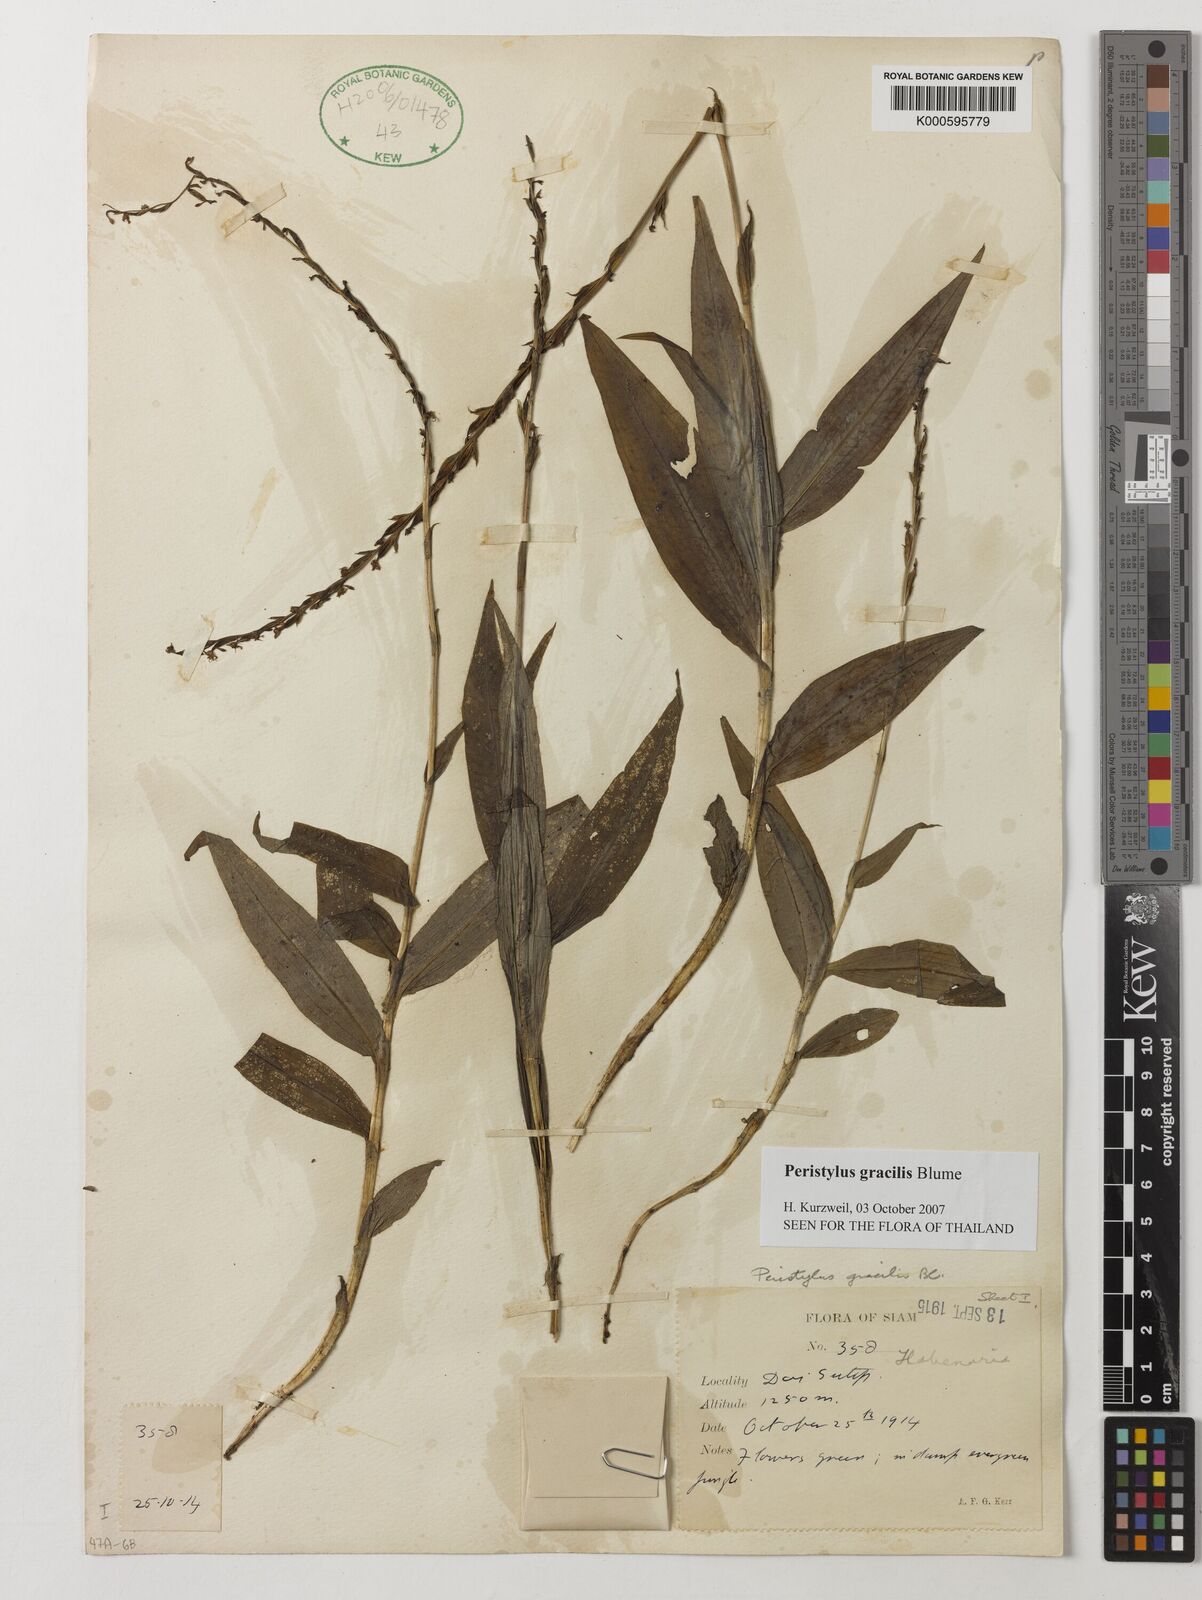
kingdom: Plantae
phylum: Tracheophyta
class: Liliopsida
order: Asparagales
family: Orchidaceae
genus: Peristylus
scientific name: Peristylus gracilis
